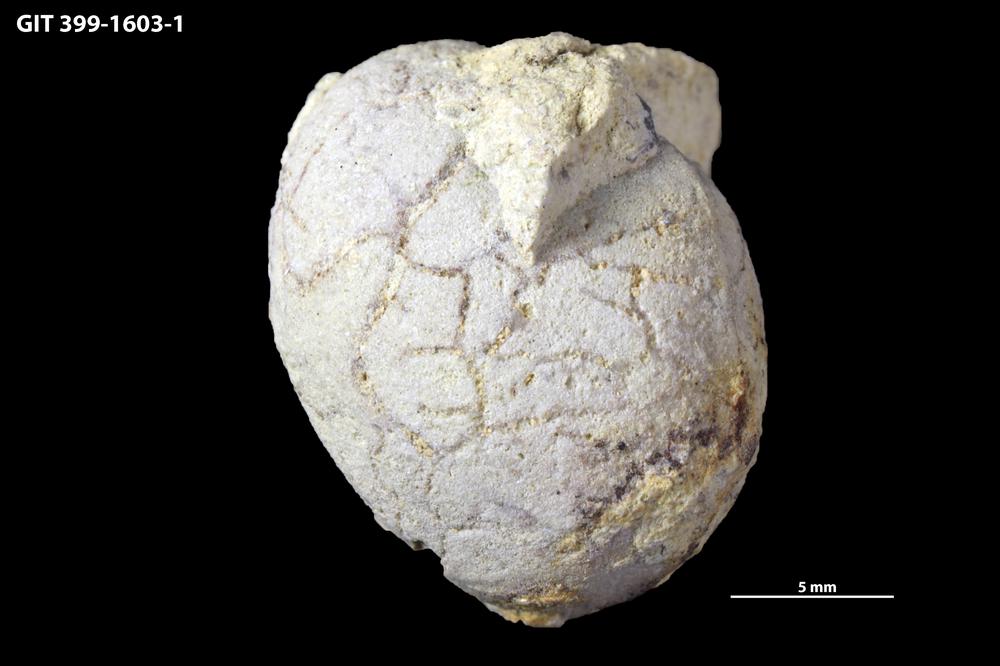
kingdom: Animalia
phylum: Annelida
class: Polychaeta
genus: Arachnostega
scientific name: Arachnostega gastrochaenae
